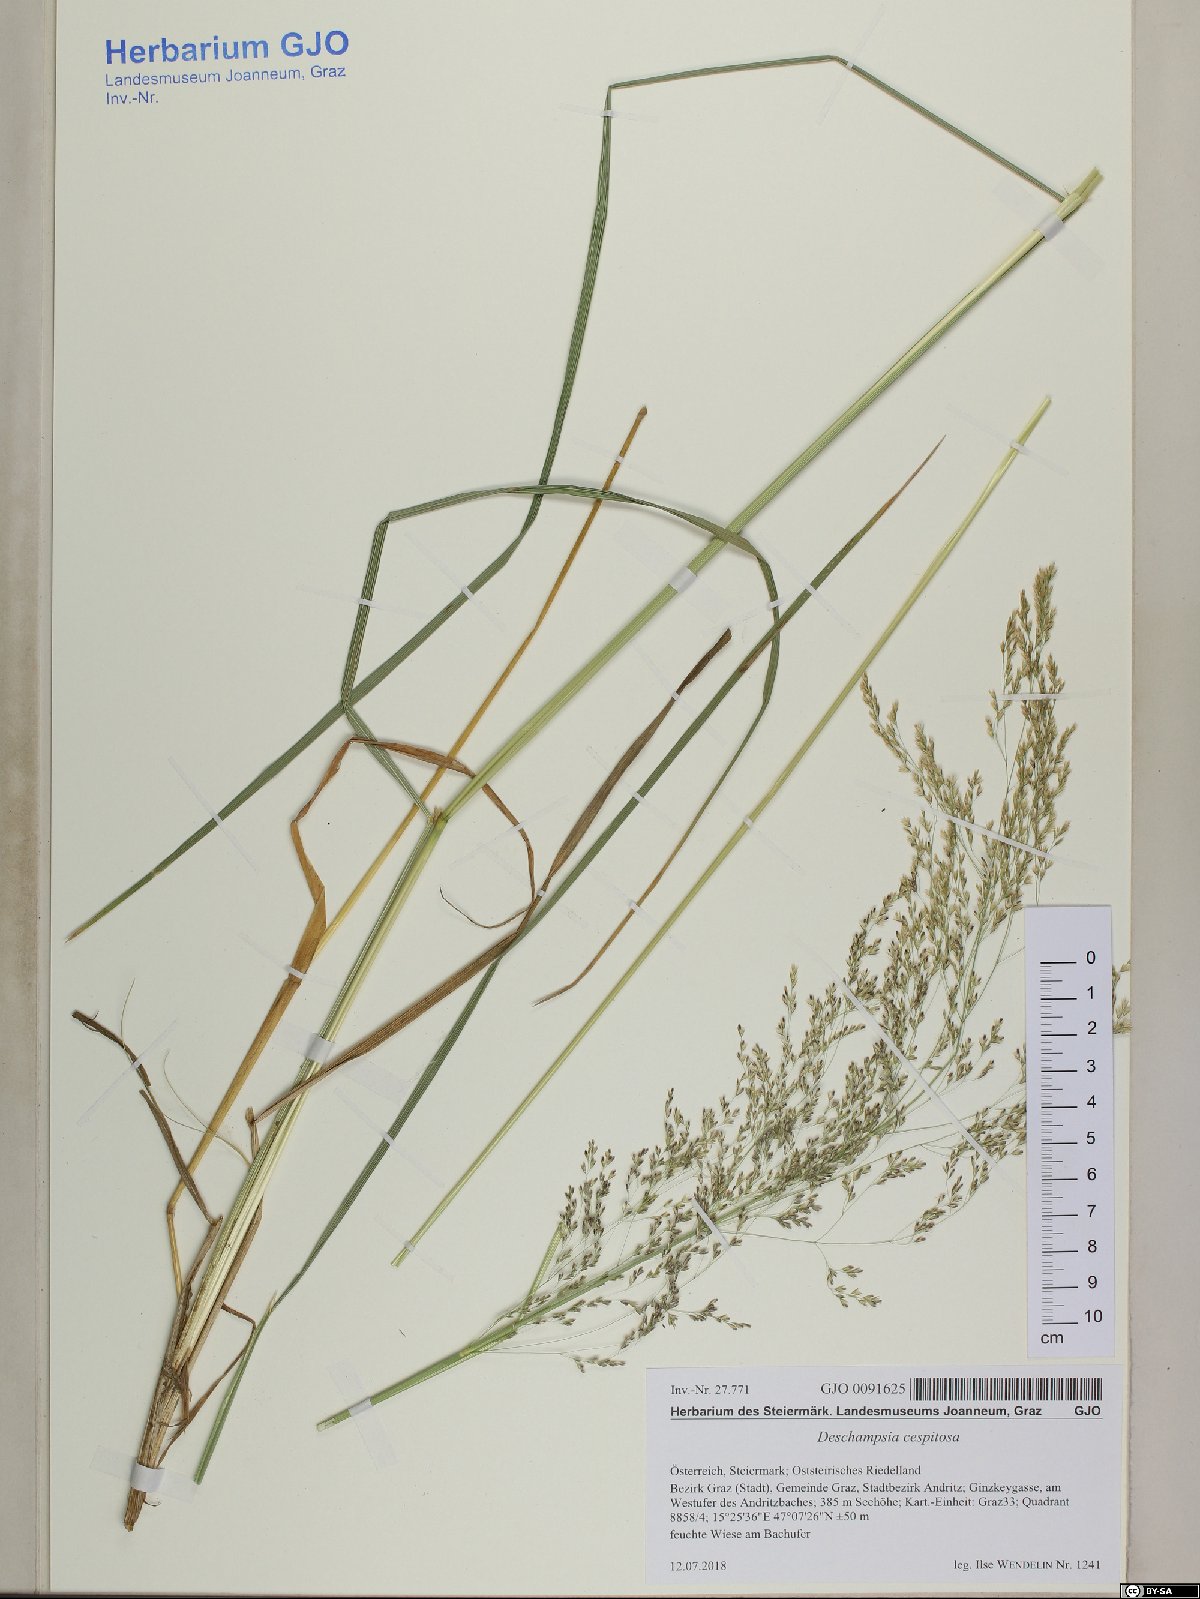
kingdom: Plantae
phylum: Tracheophyta
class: Liliopsida
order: Poales
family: Poaceae
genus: Deschampsia
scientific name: Deschampsia cespitosa
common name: Tufted hair-grass
